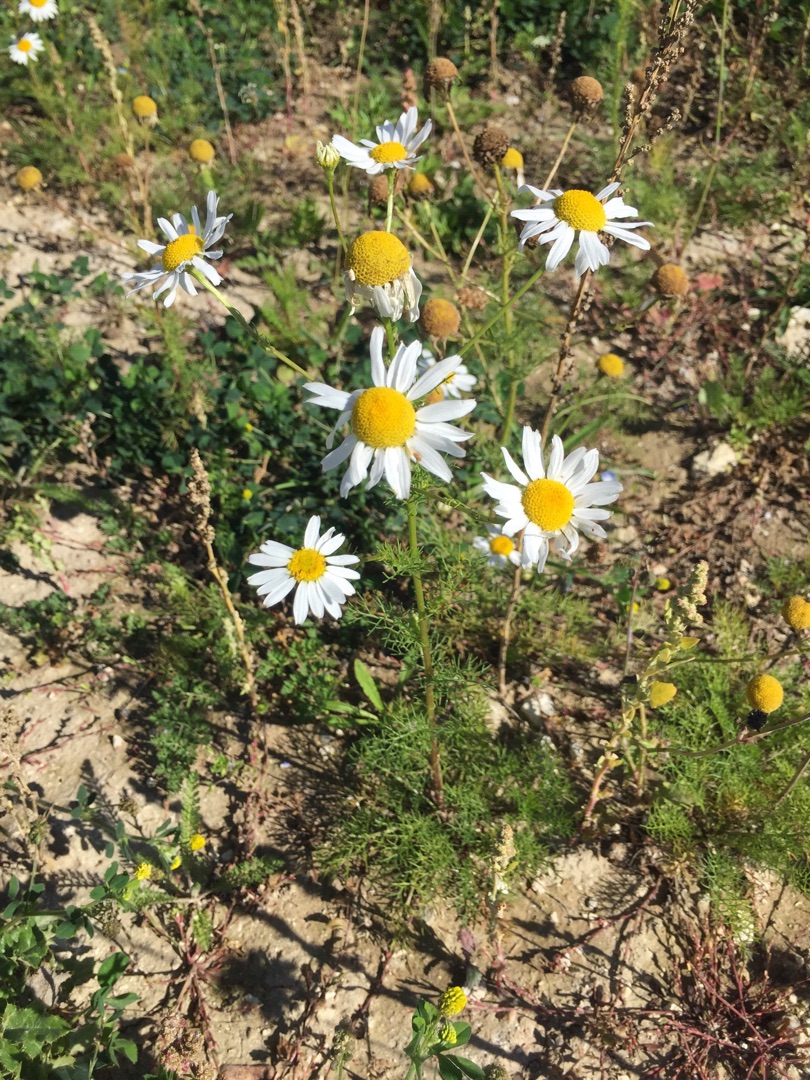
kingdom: Plantae
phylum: Tracheophyta
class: Magnoliopsida
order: Asterales
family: Asteraceae
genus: Tripleurospermum
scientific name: Tripleurospermum inodorum
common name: Lugtløs kamille
